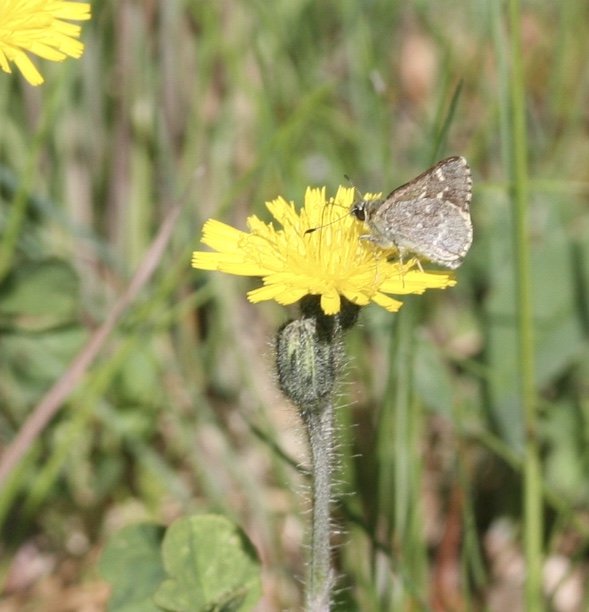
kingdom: Animalia
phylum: Arthropoda
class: Insecta
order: Lepidoptera
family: Hesperiidae
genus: Mastor
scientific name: Mastor hegon
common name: Pepper and Salt Skipper
